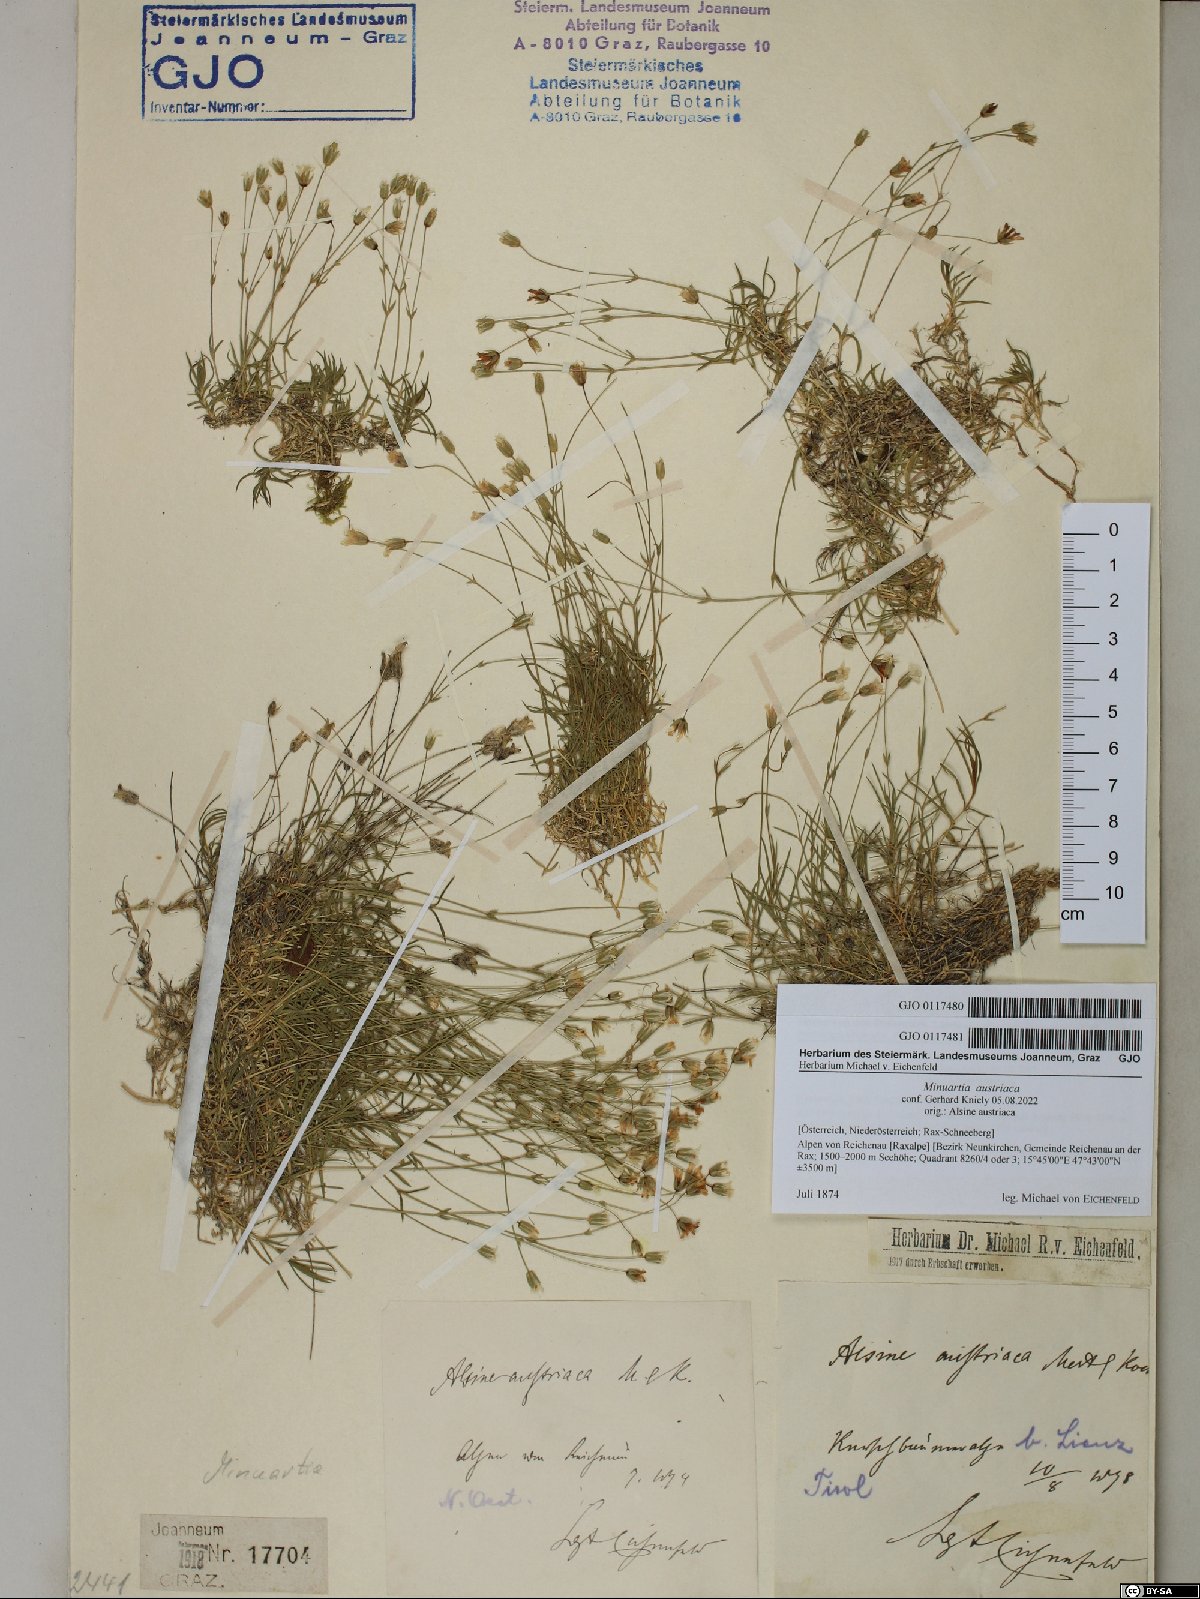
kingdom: Plantae
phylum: Tracheophyta
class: Magnoliopsida
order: Caryophyllales
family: Caryophyllaceae
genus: Sabulina
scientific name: Sabulina austriaca
